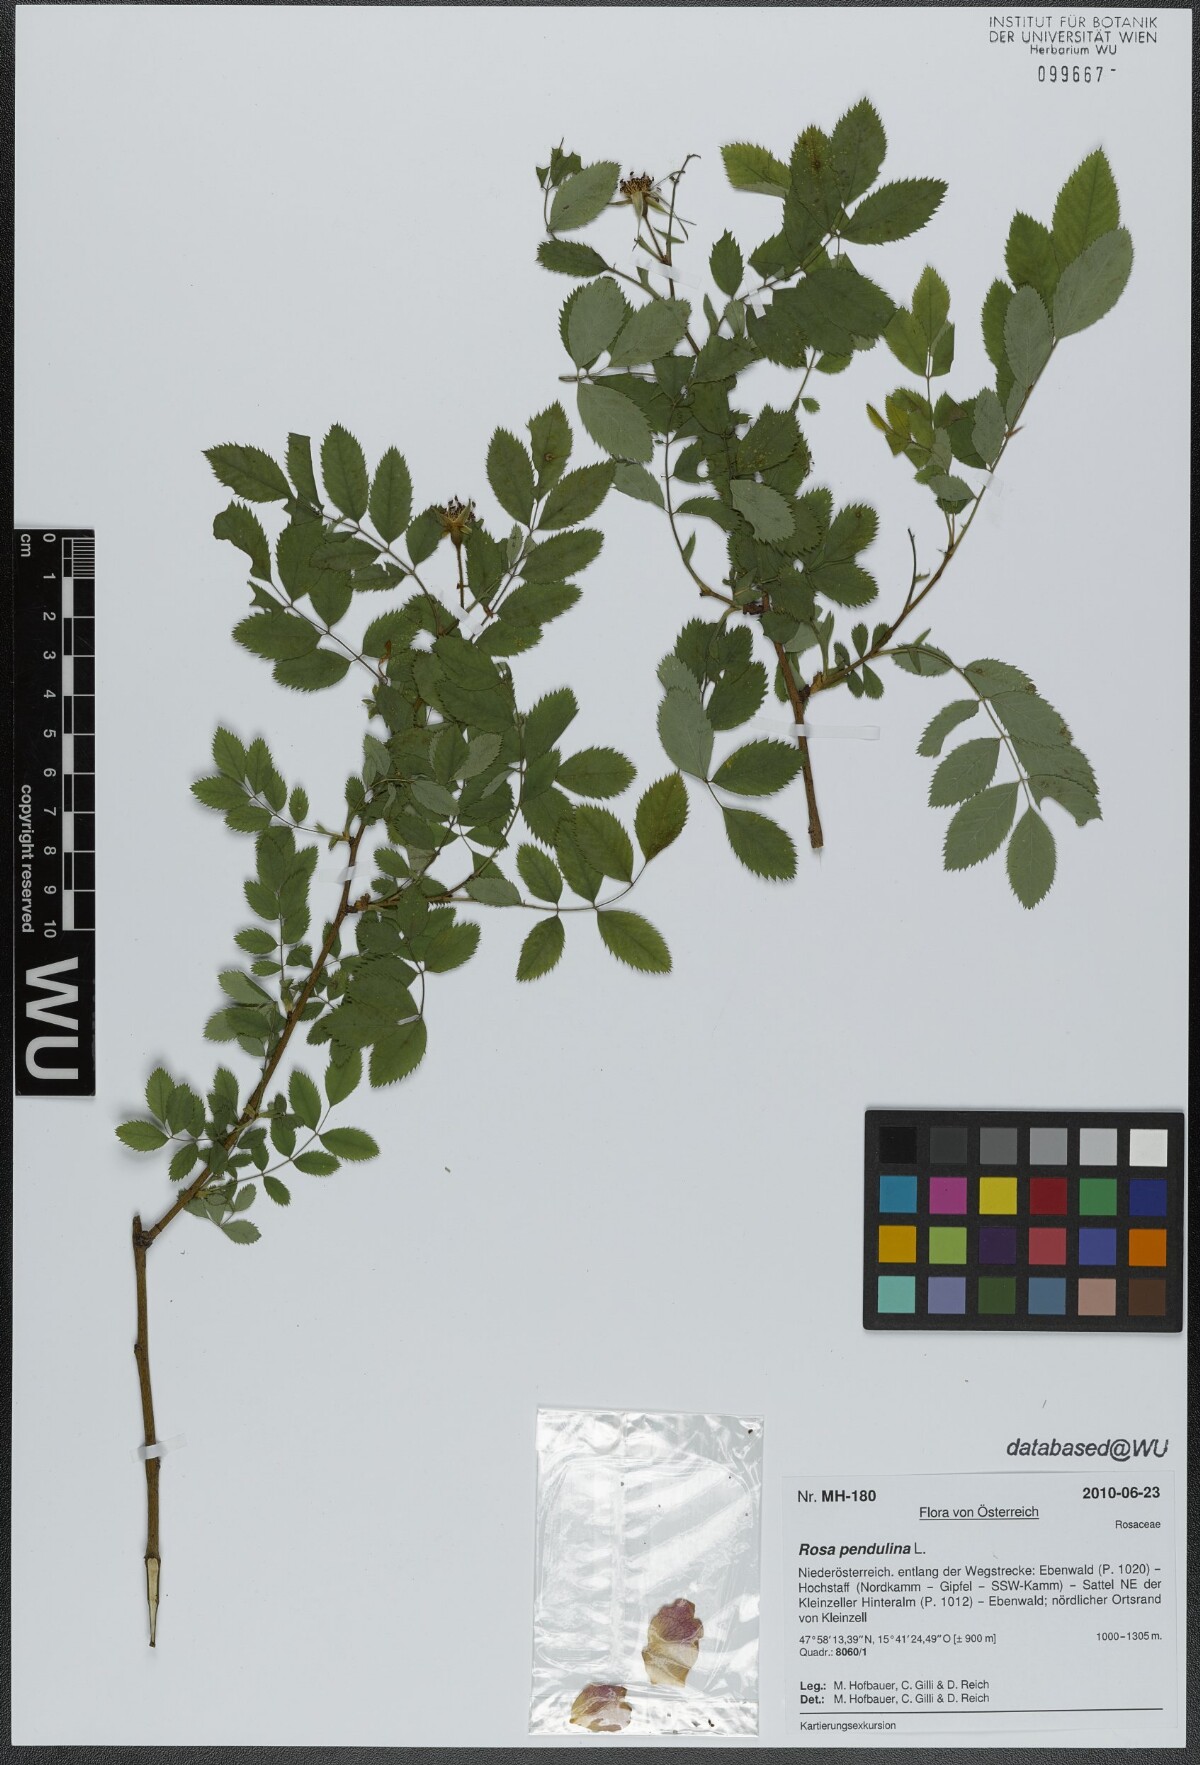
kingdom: Plantae
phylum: Tracheophyta
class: Magnoliopsida
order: Rosales
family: Rosaceae
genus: Rosa
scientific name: Rosa pendulina
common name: Alpine rose
